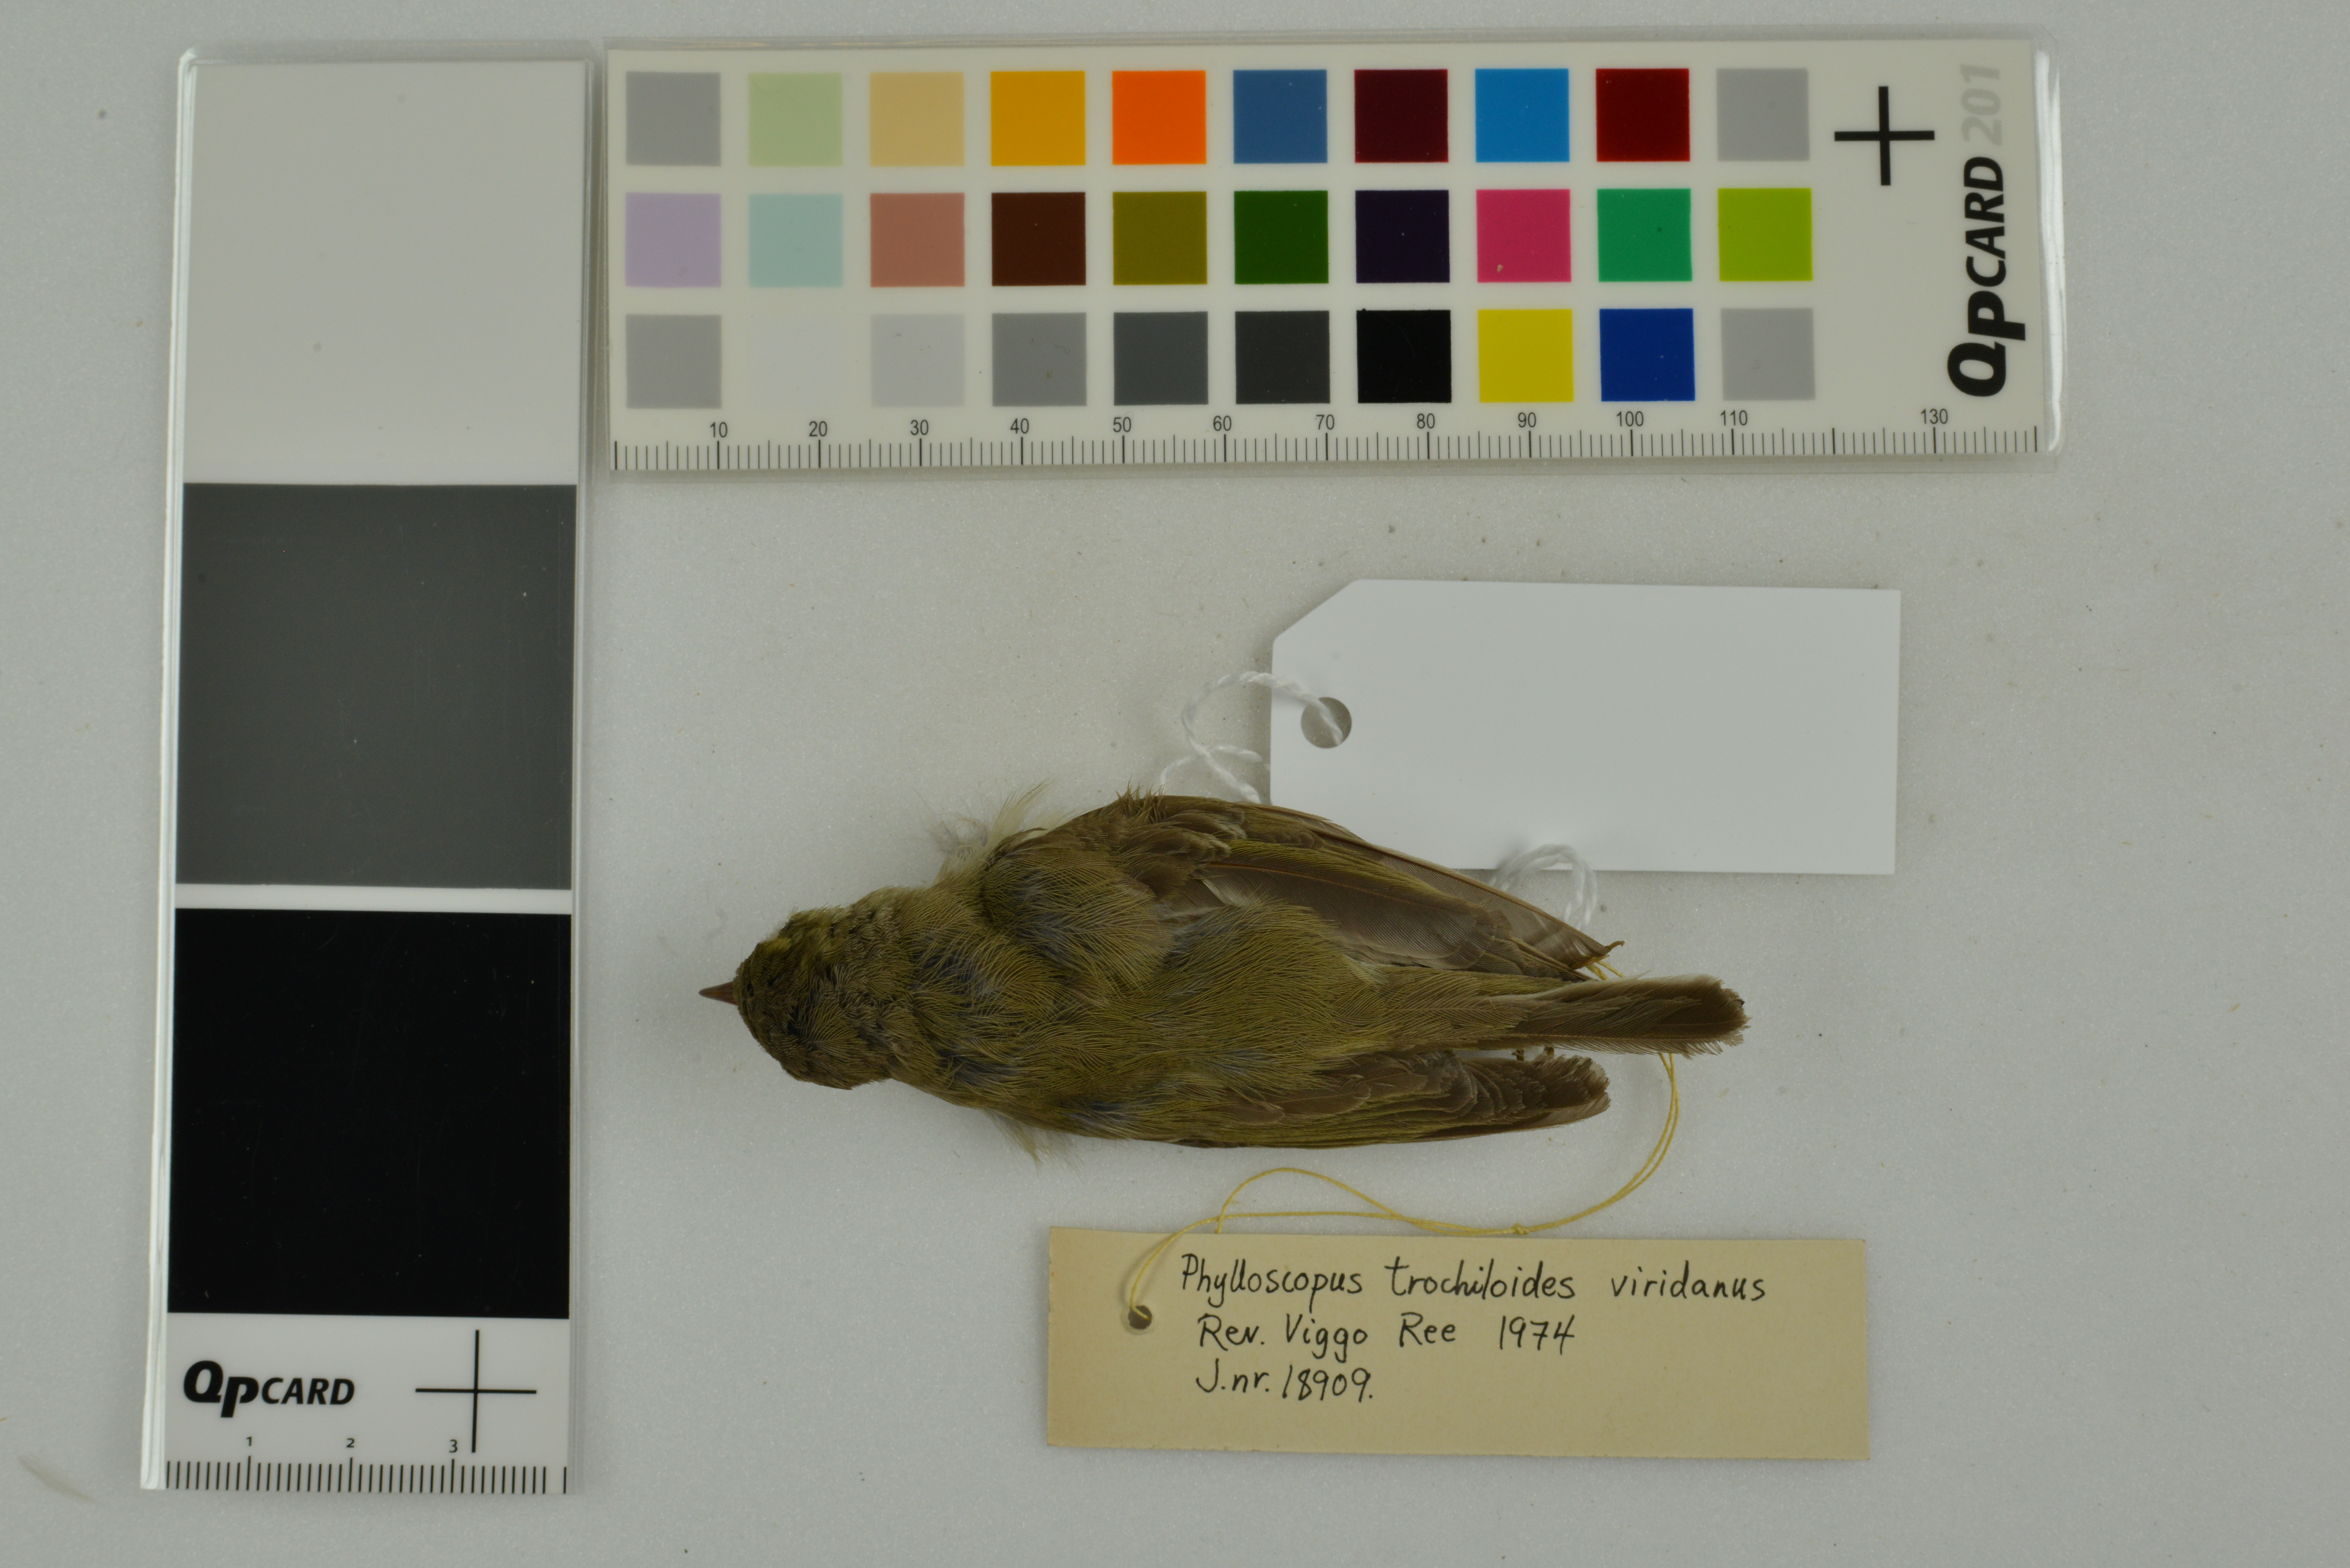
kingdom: Animalia
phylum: Chordata
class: Aves
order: Passeriformes
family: Phylloscopidae
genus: Phylloscopus
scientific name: Phylloscopus trochiloides
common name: Greenish warbler
